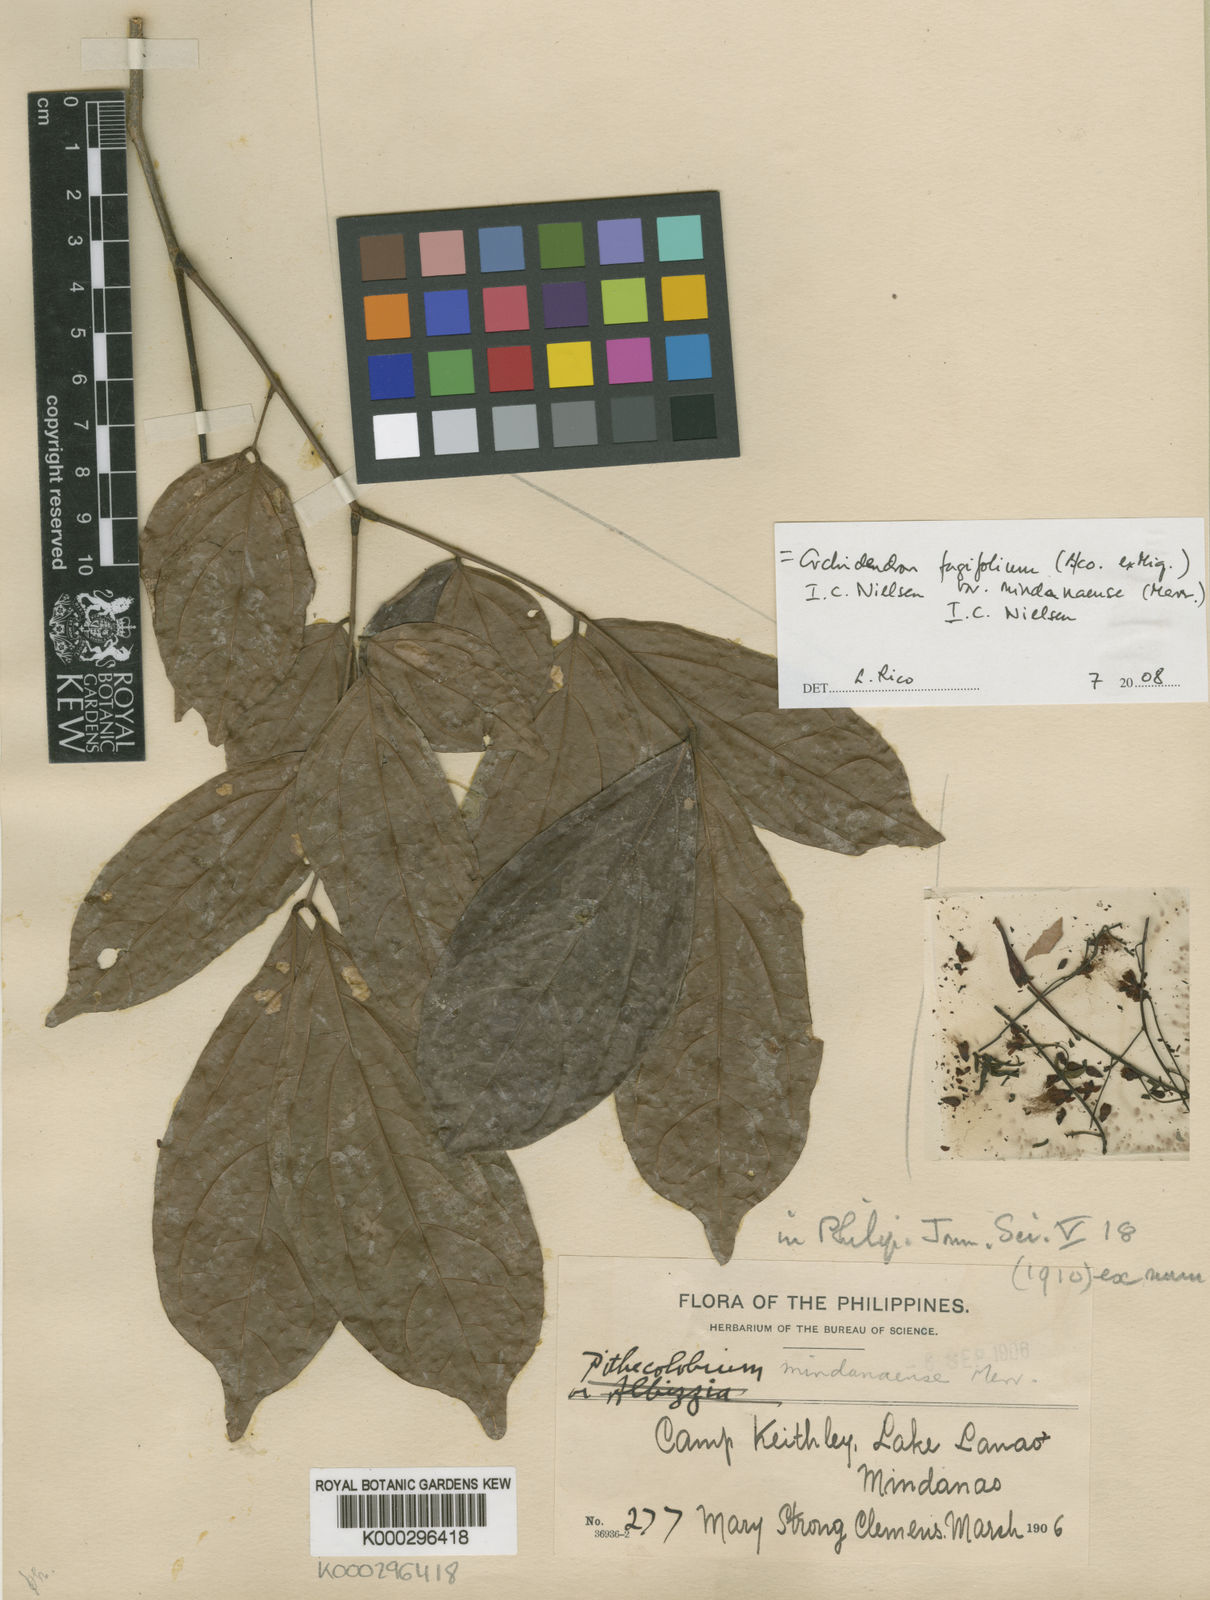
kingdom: Plantae
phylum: Tracheophyta
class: Magnoliopsida
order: Fabales
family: Fabaceae
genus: Archidendron
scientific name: Archidendron fagifolium
